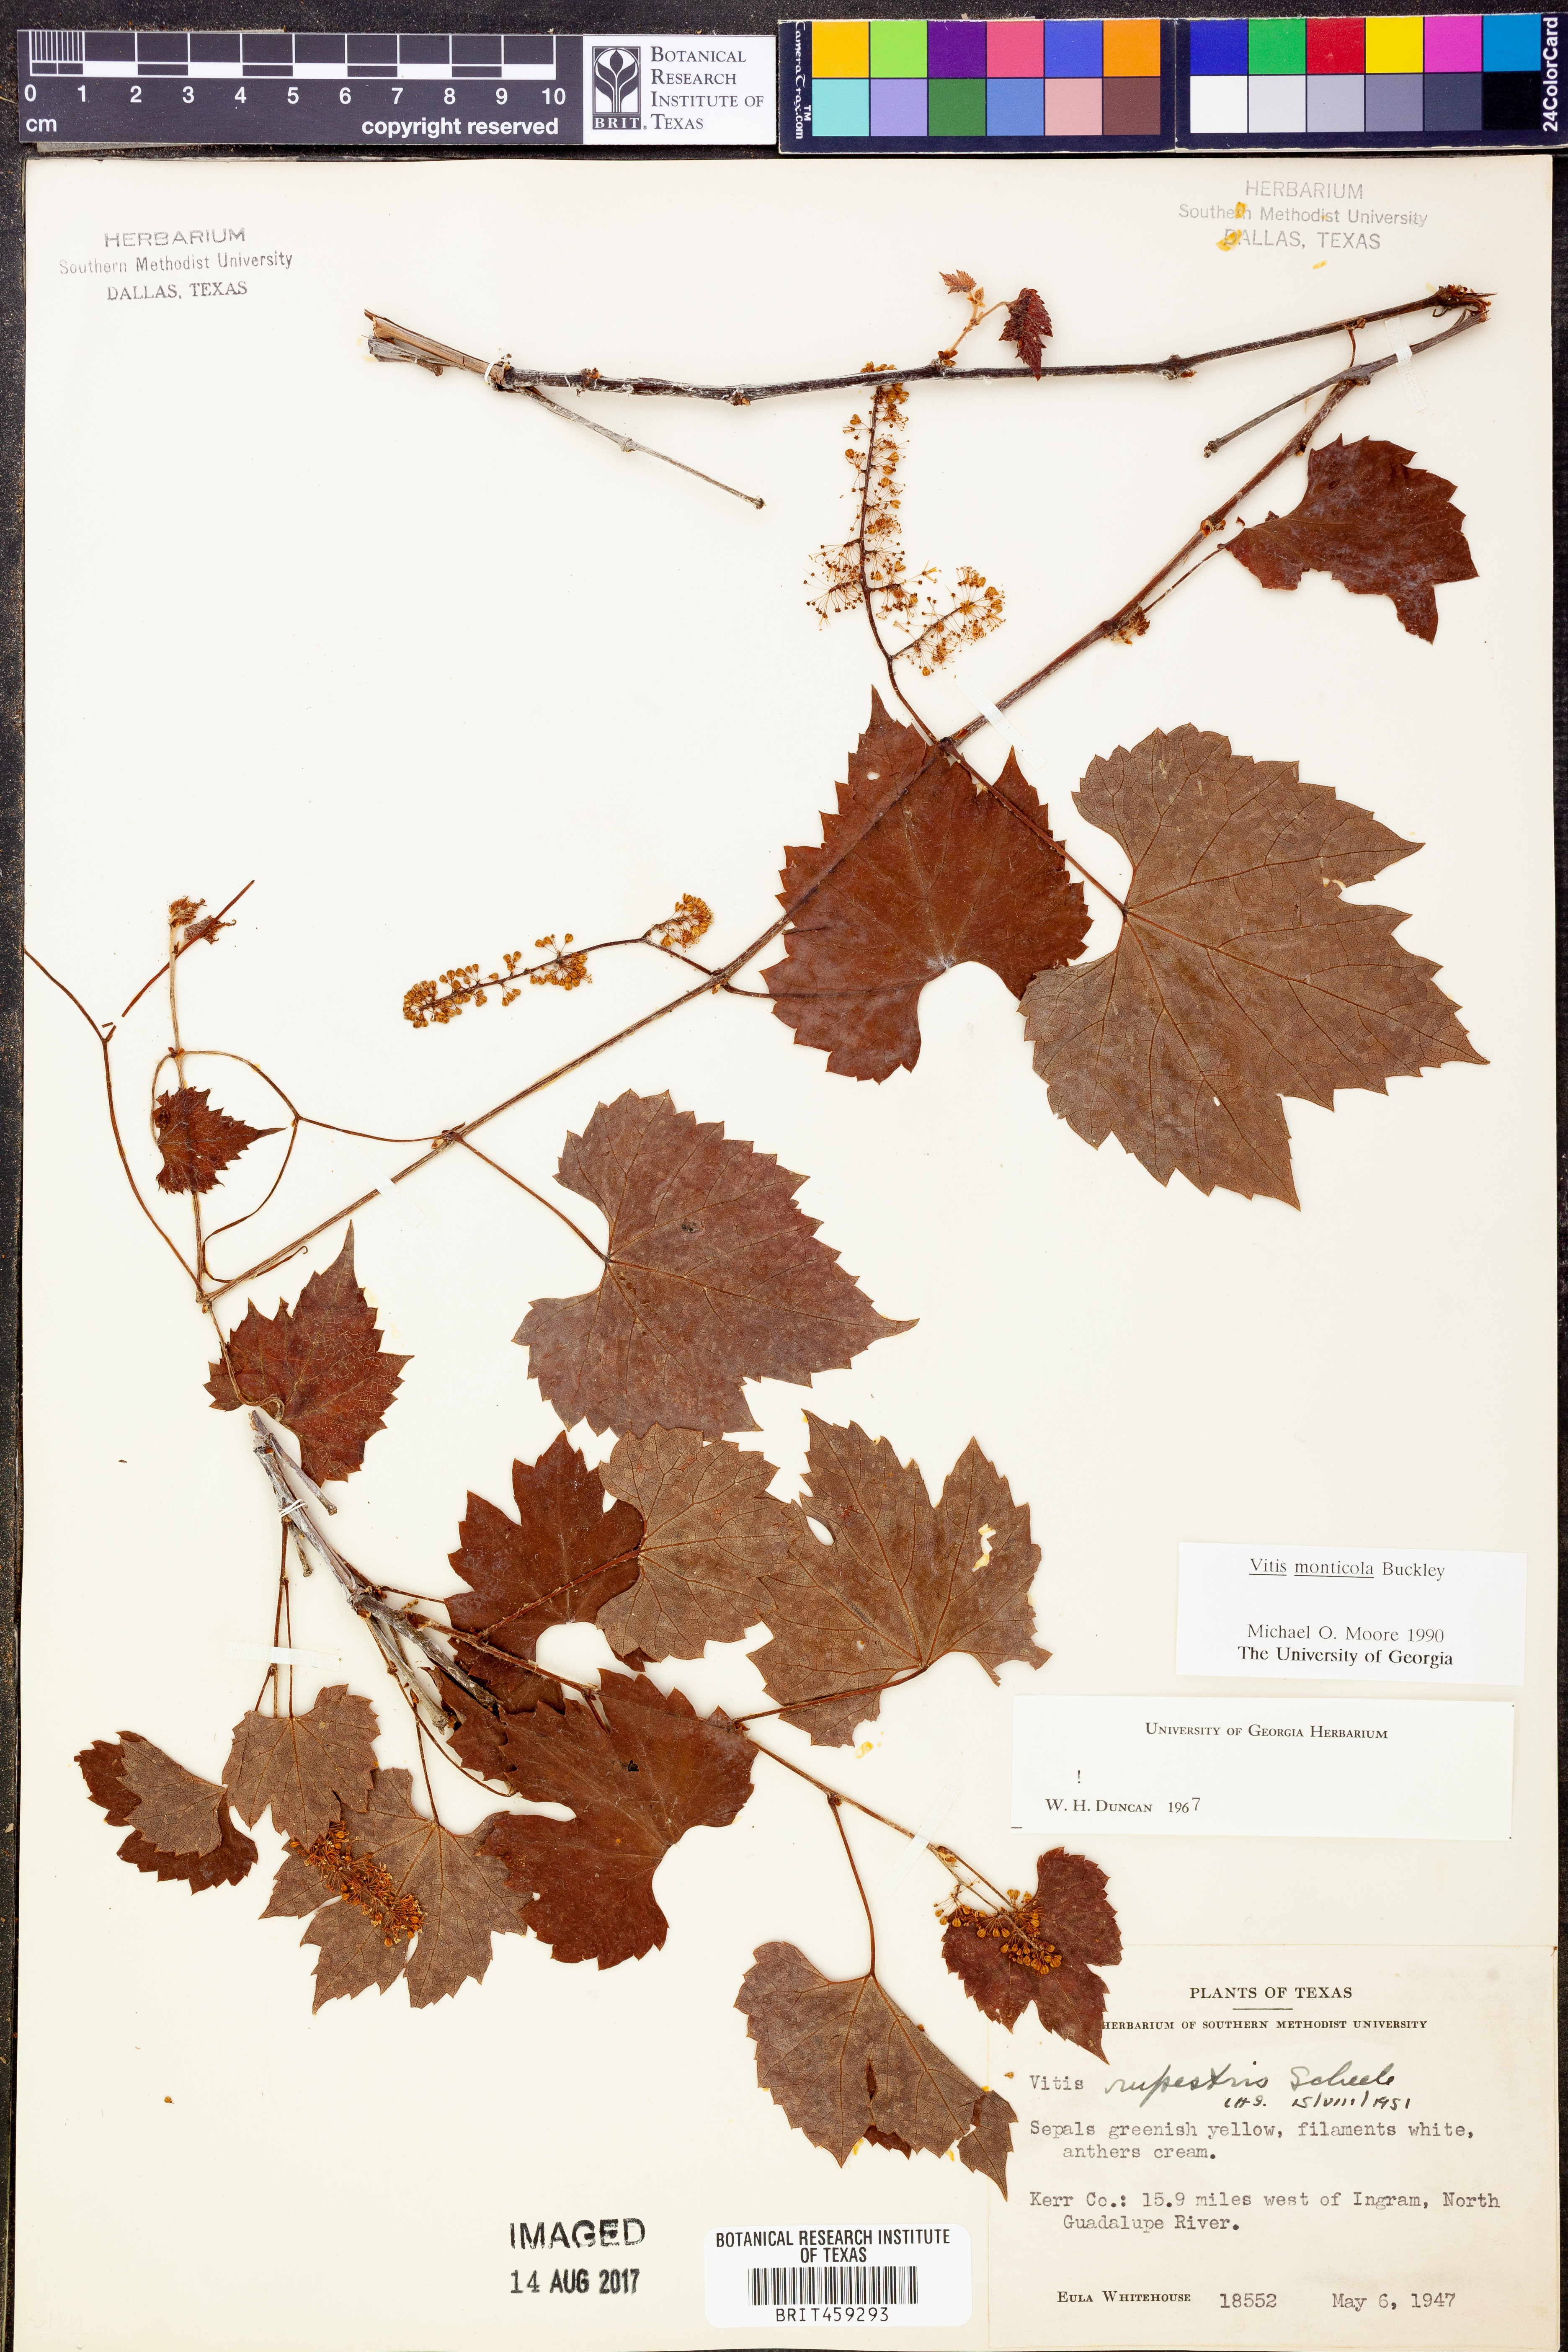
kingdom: Plantae
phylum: Tracheophyta
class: Magnoliopsida
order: Vitales
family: Vitaceae
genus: Vitis
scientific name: Vitis monticola
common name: Mountain grape
